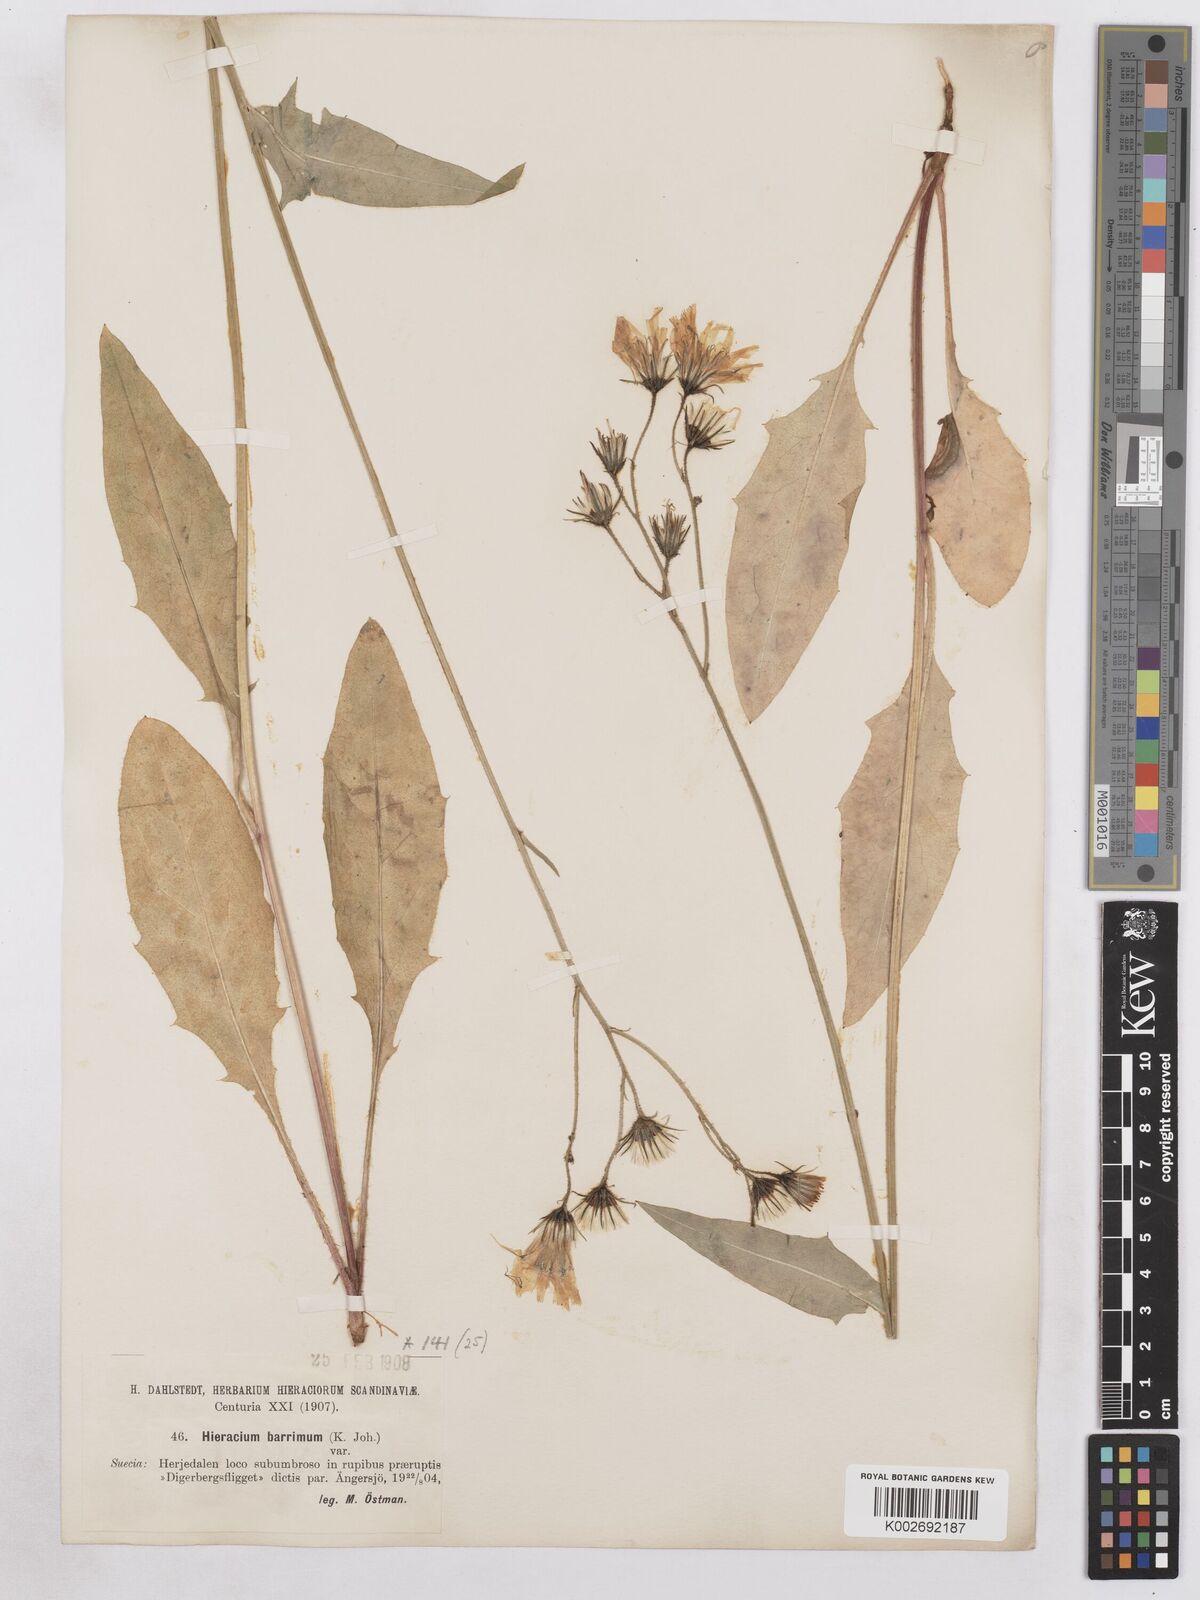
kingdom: Plantae
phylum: Tracheophyta
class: Magnoliopsida
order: Asterales
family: Asteraceae
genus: Hieracium
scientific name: Hieracium diaphanoides
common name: Fine-bracted hawkweed
